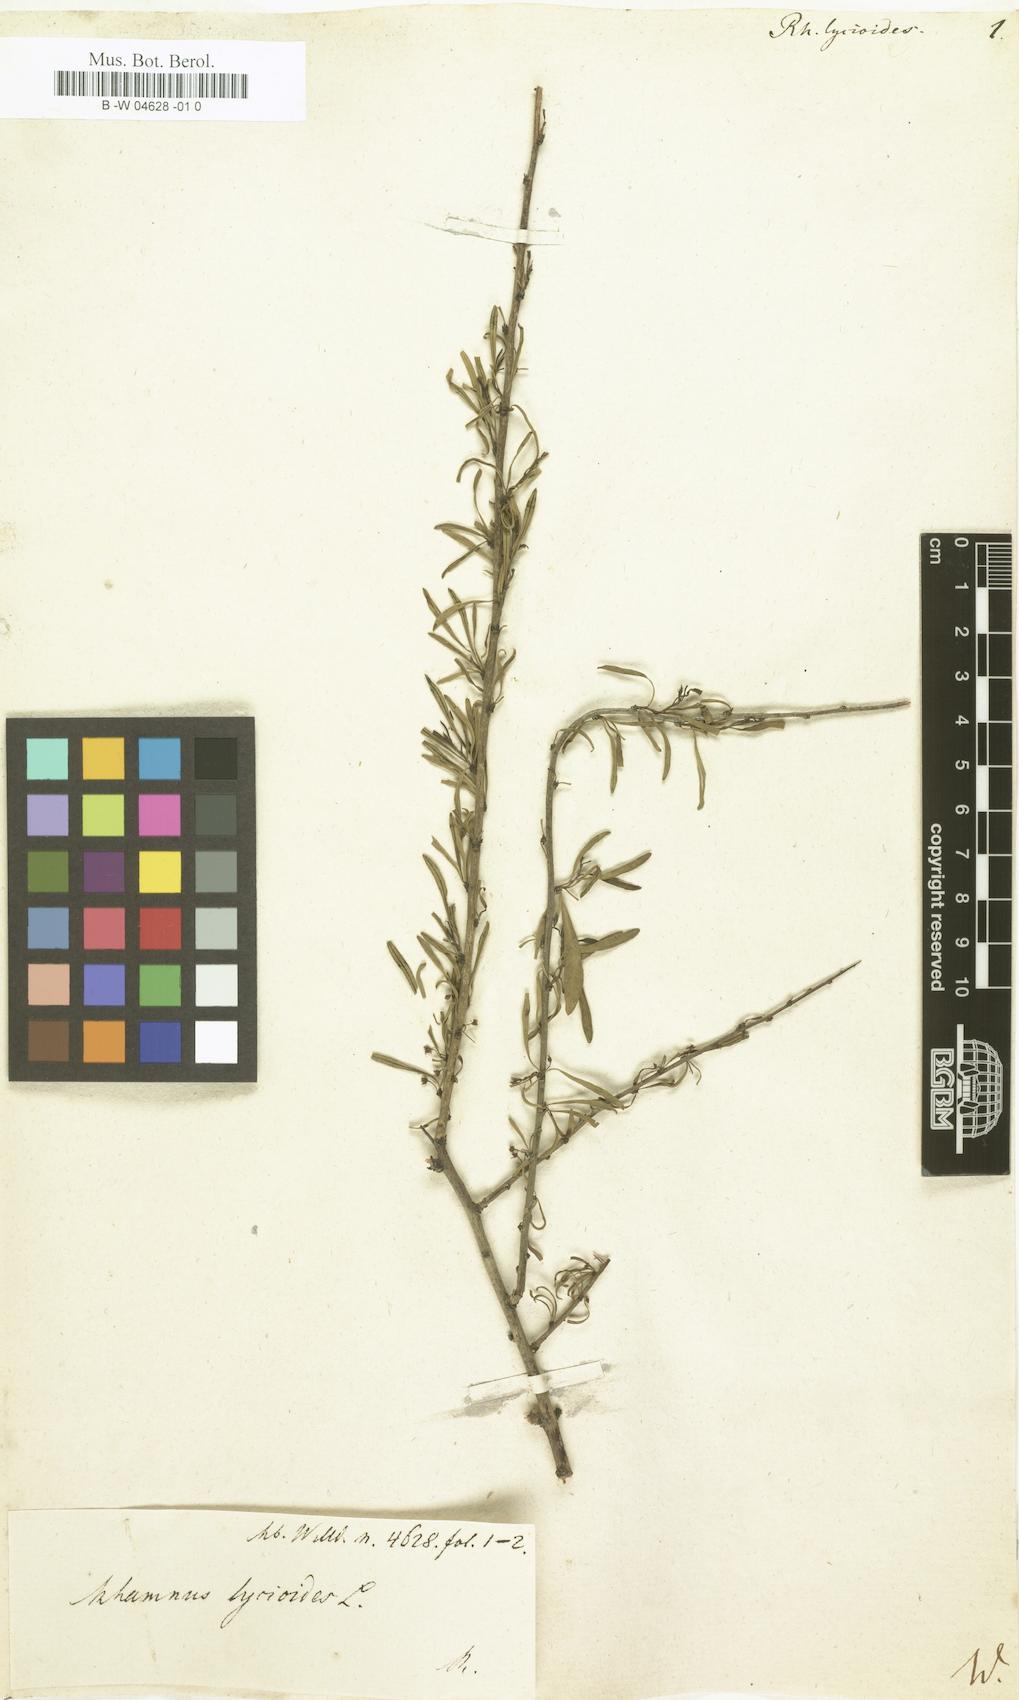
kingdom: Plantae
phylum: Tracheophyta
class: Magnoliopsida
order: Rosales
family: Rhamnaceae
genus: Rhamnus
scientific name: Rhamnus lycioides
